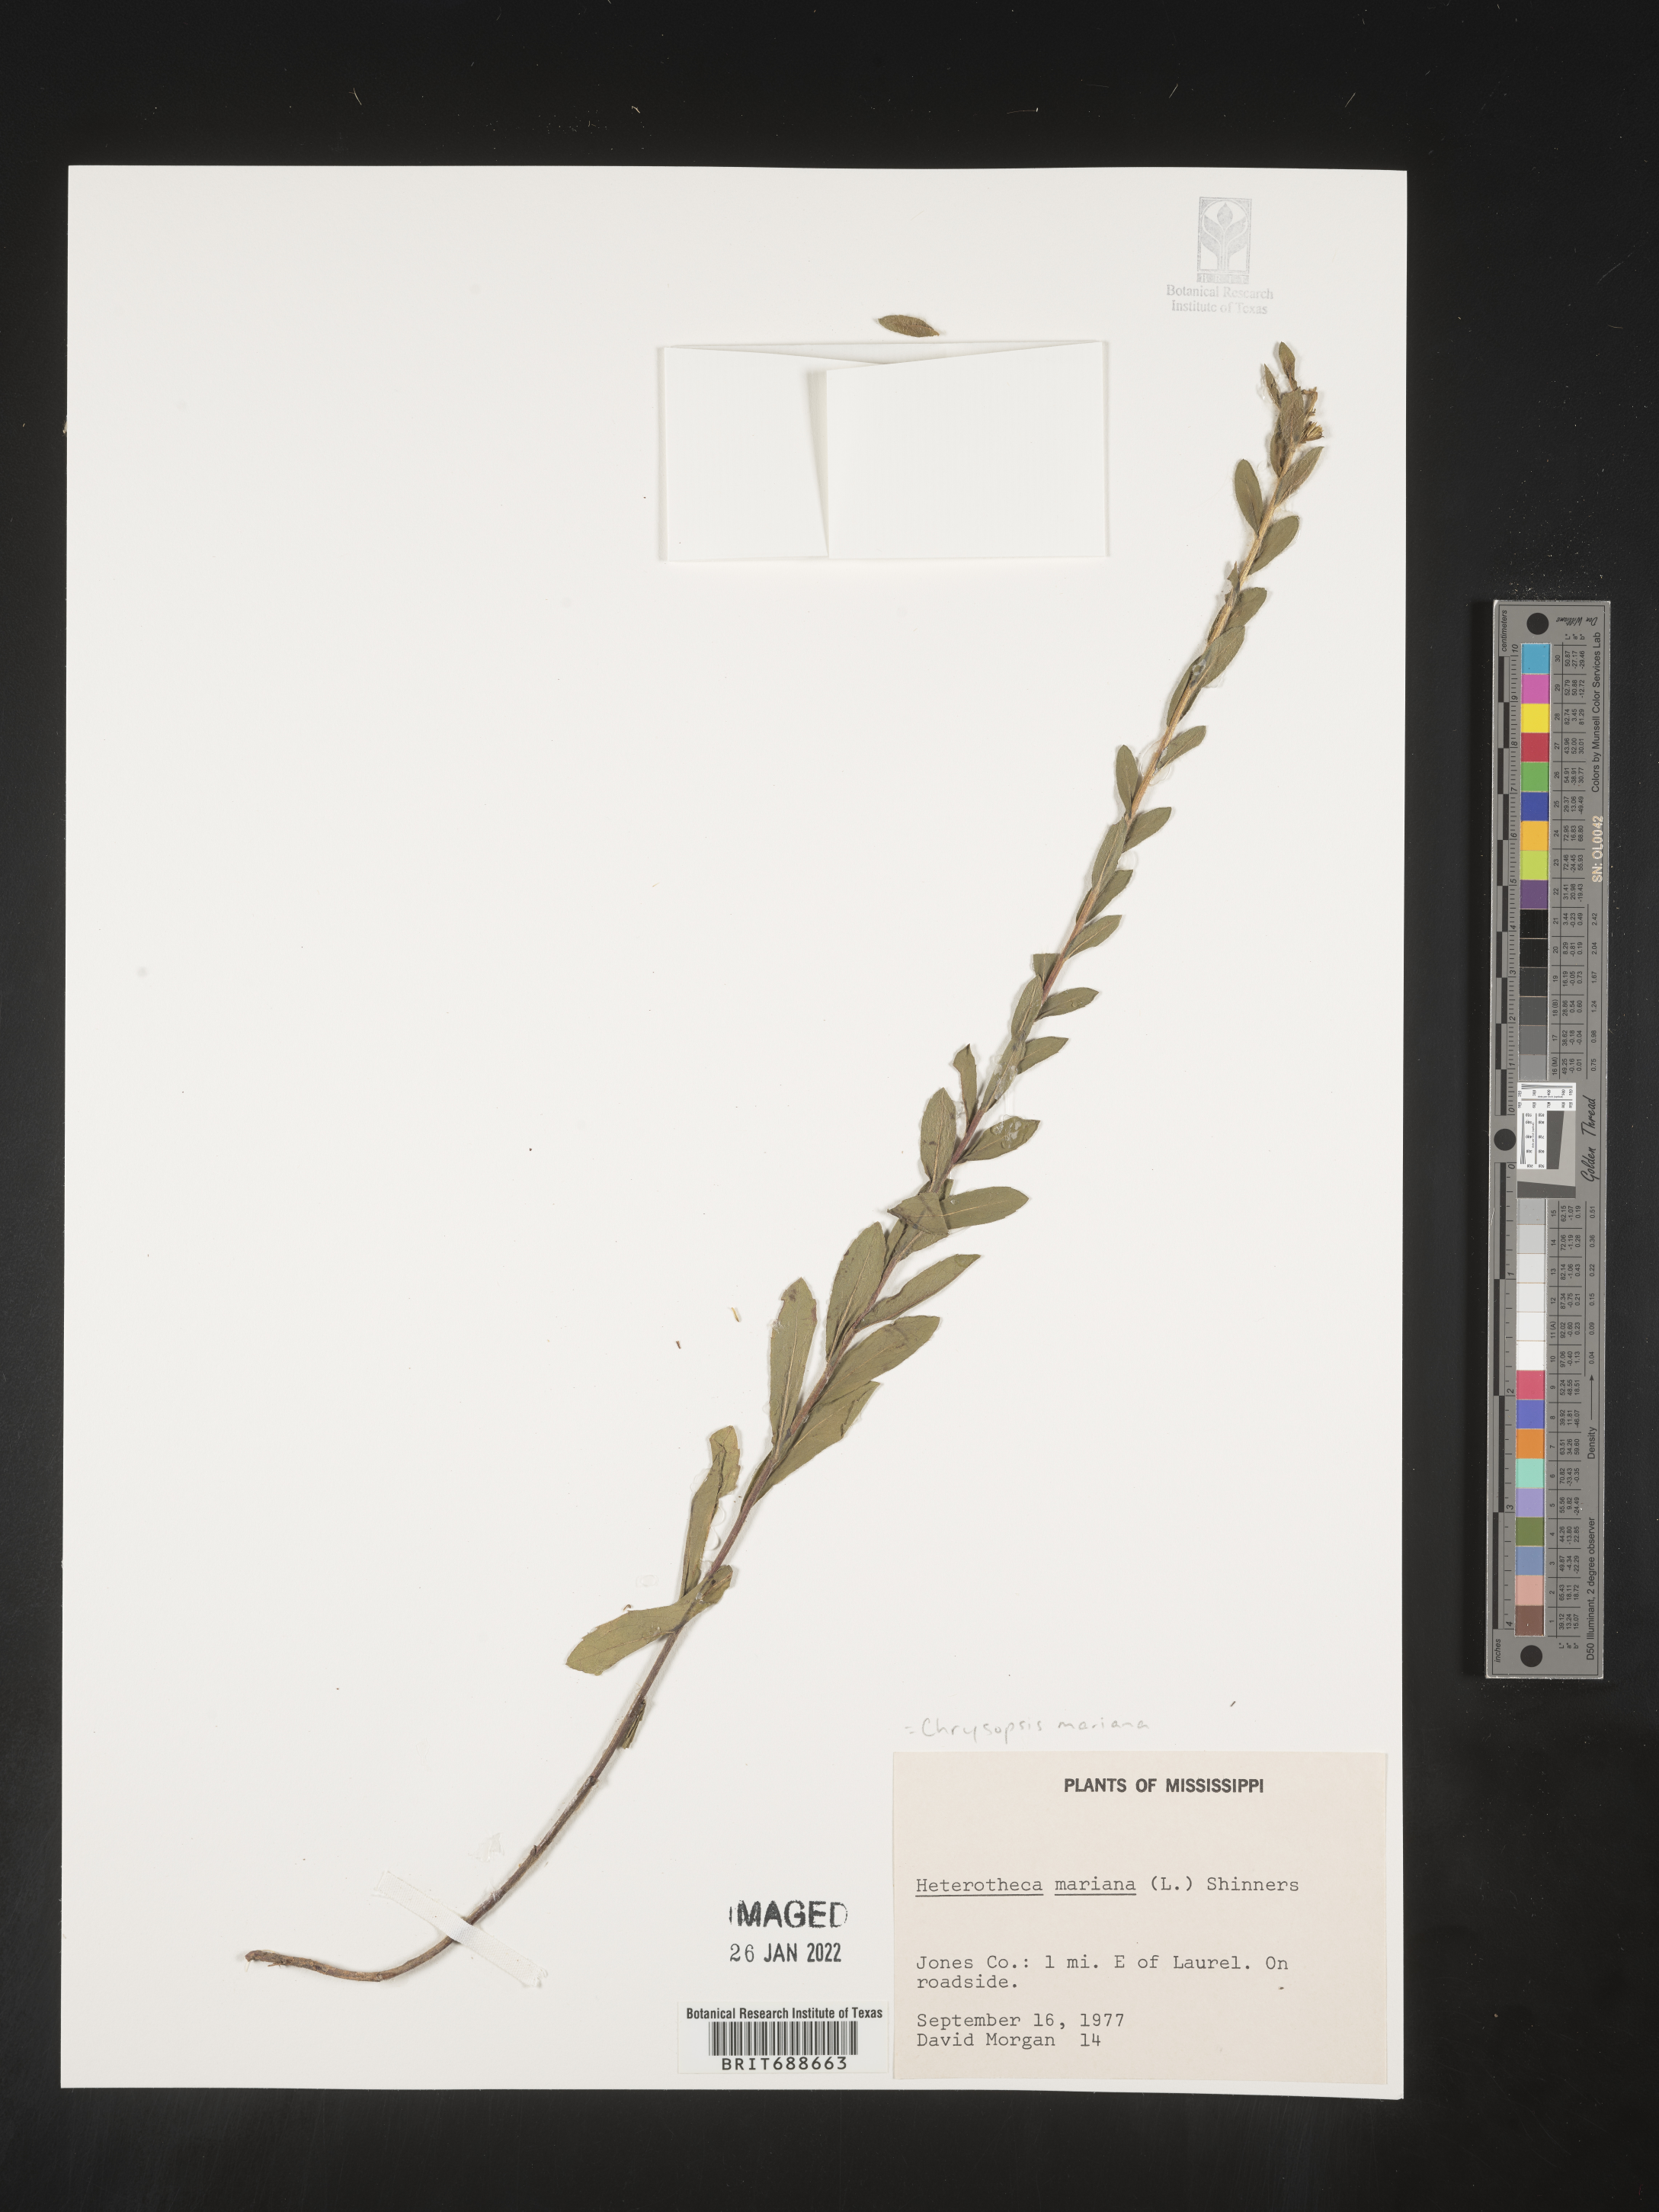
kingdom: Plantae
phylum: Tracheophyta
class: Magnoliopsida
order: Asterales
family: Asteraceae
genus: Chrysopsis
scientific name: Chrysopsis mariana
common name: Maryland golden-aster
